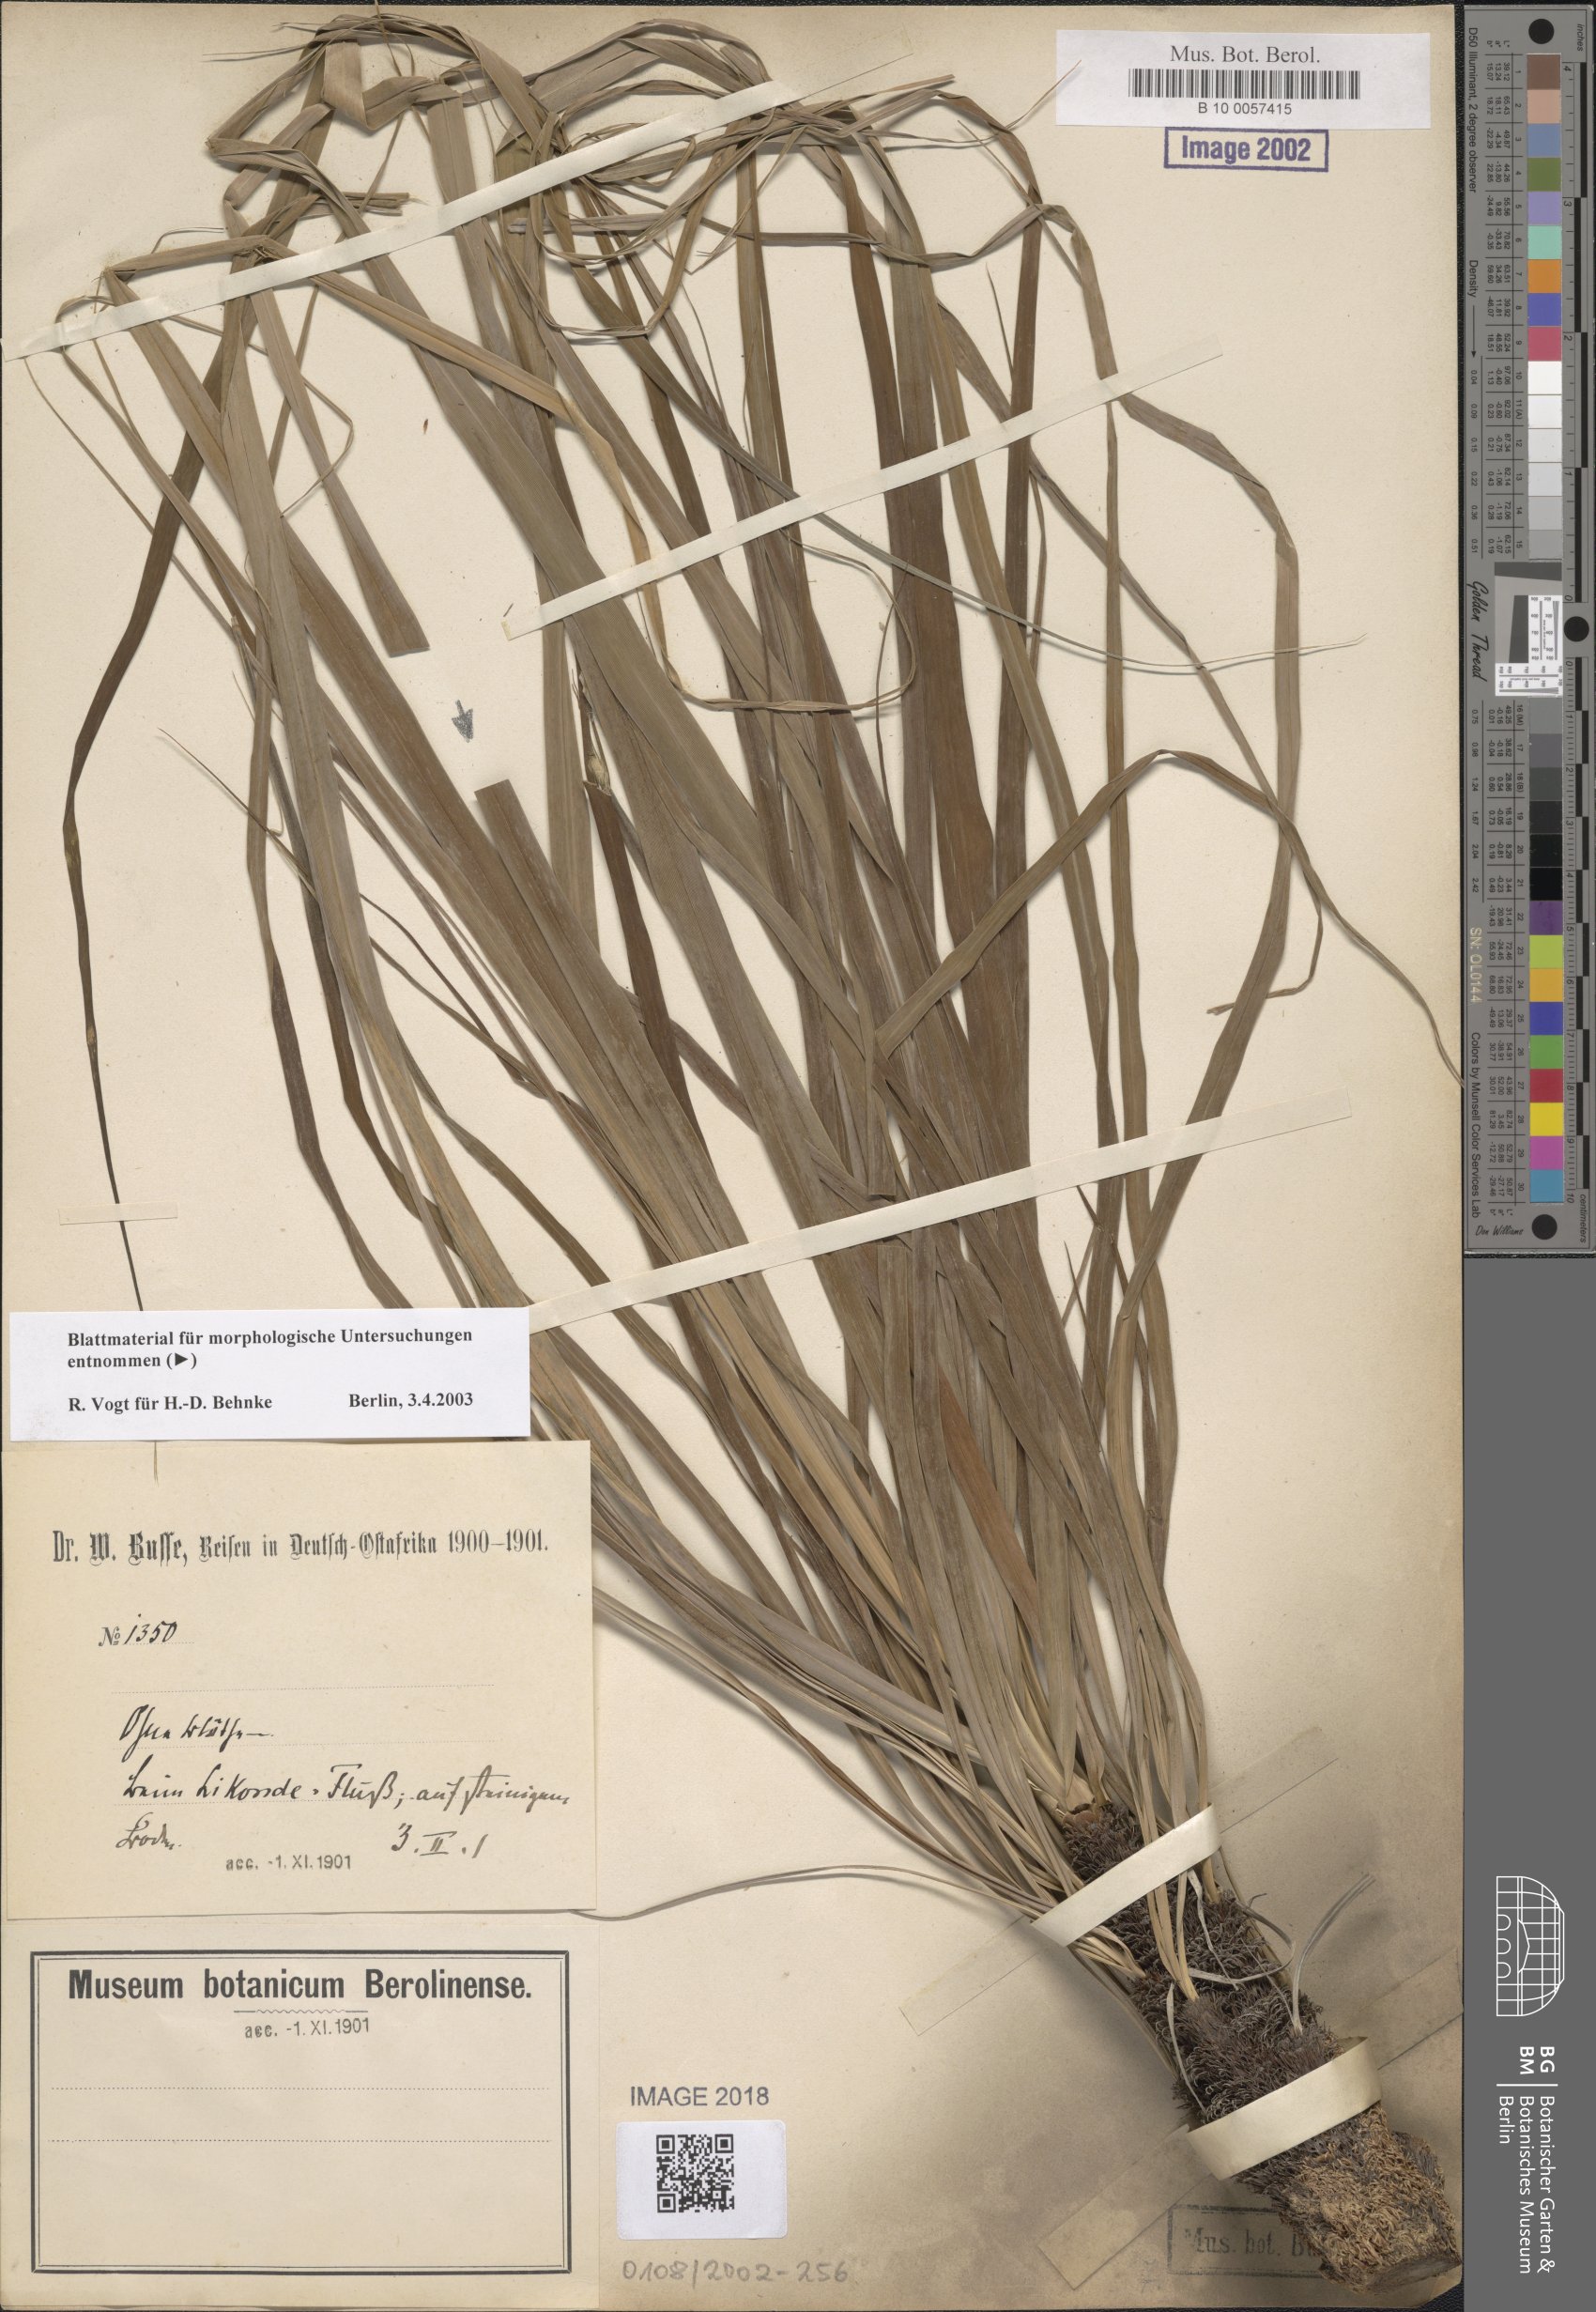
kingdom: Plantae
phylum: Tracheophyta
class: Liliopsida
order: Pandanales
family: Velloziaceae
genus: Xerophyta
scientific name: Xerophyta
